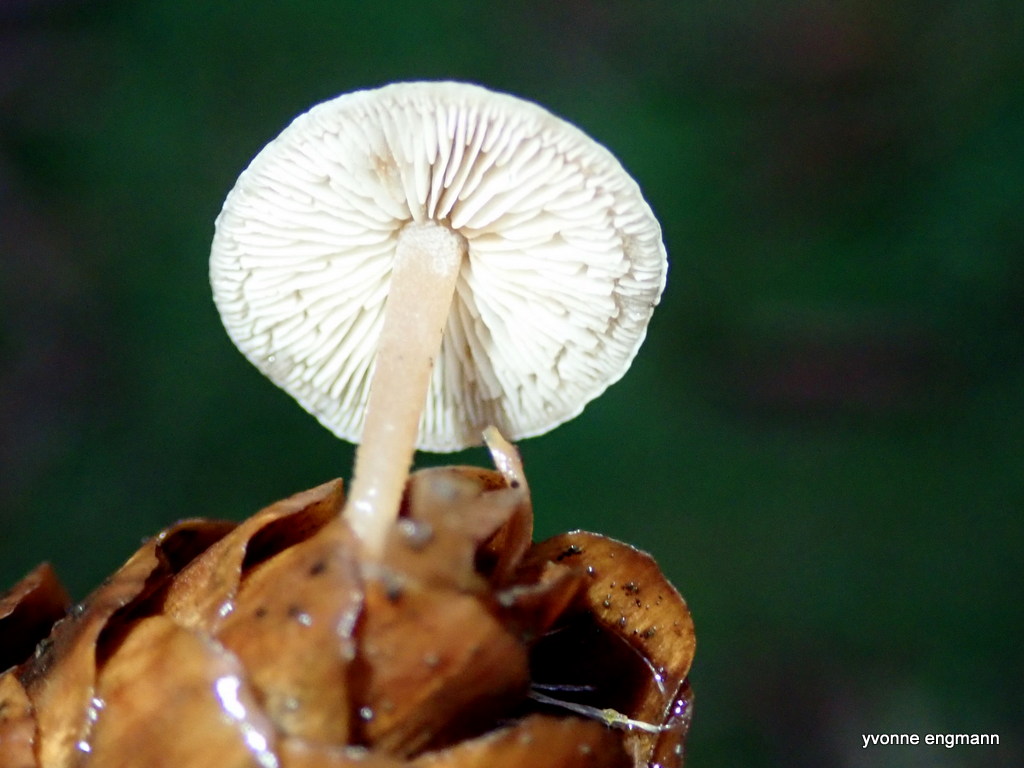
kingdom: Fungi
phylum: Basidiomycota
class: Agaricomycetes
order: Agaricales
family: Marasmiaceae
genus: Baeospora
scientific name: Baeospora myosura
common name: koglebruskhat
